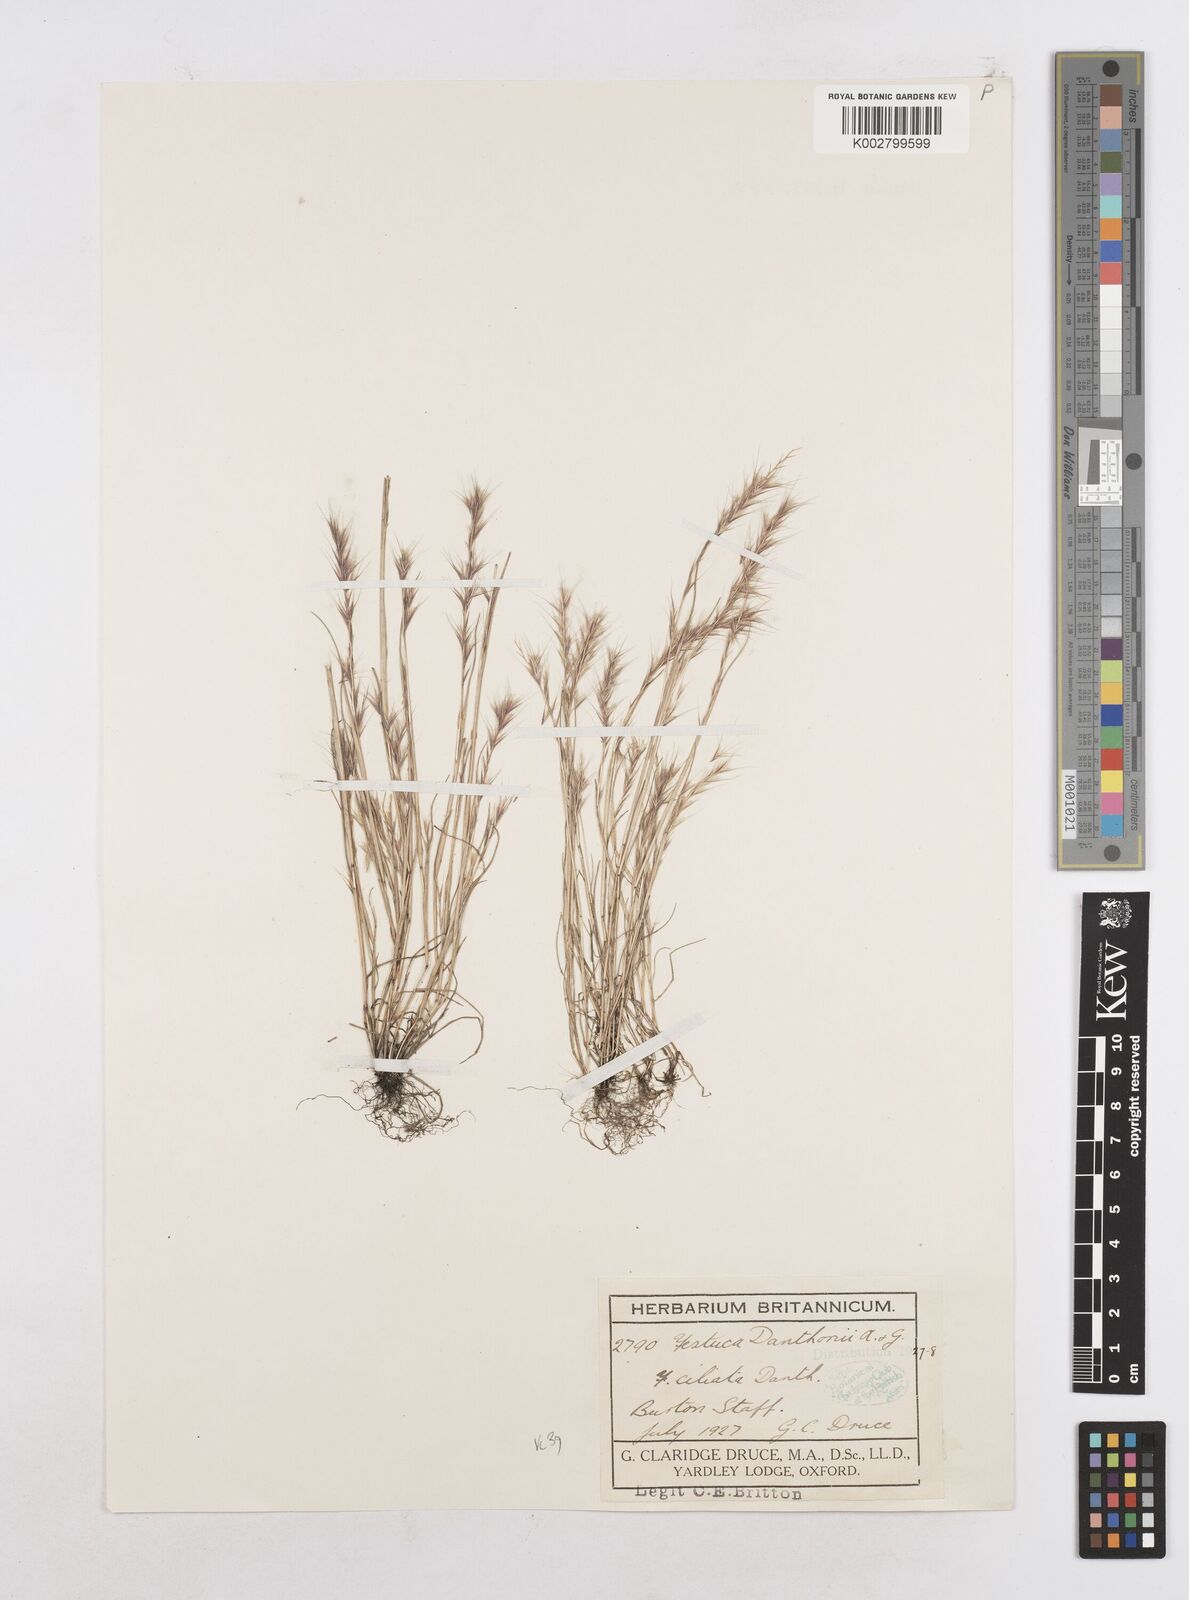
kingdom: Plantae
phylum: Tracheophyta
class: Liliopsida
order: Poales
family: Poaceae
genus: Festuca
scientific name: Festuca
